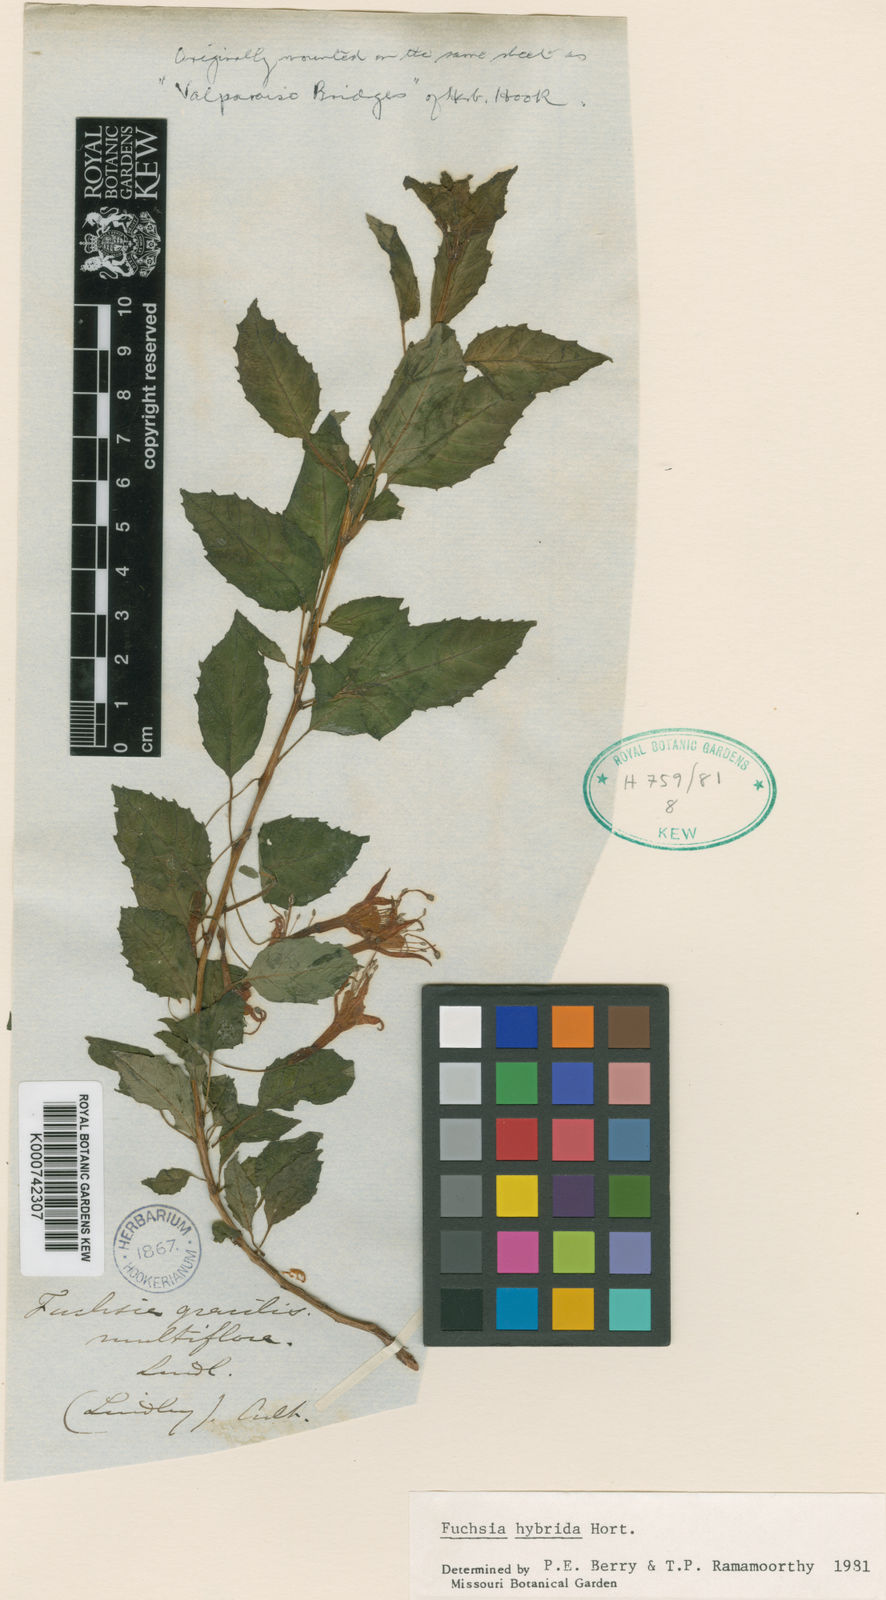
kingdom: Plantae
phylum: Tracheophyta
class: Magnoliopsida
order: Myrtales
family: Onagraceae
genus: Fuchsia
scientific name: Fuchsia
